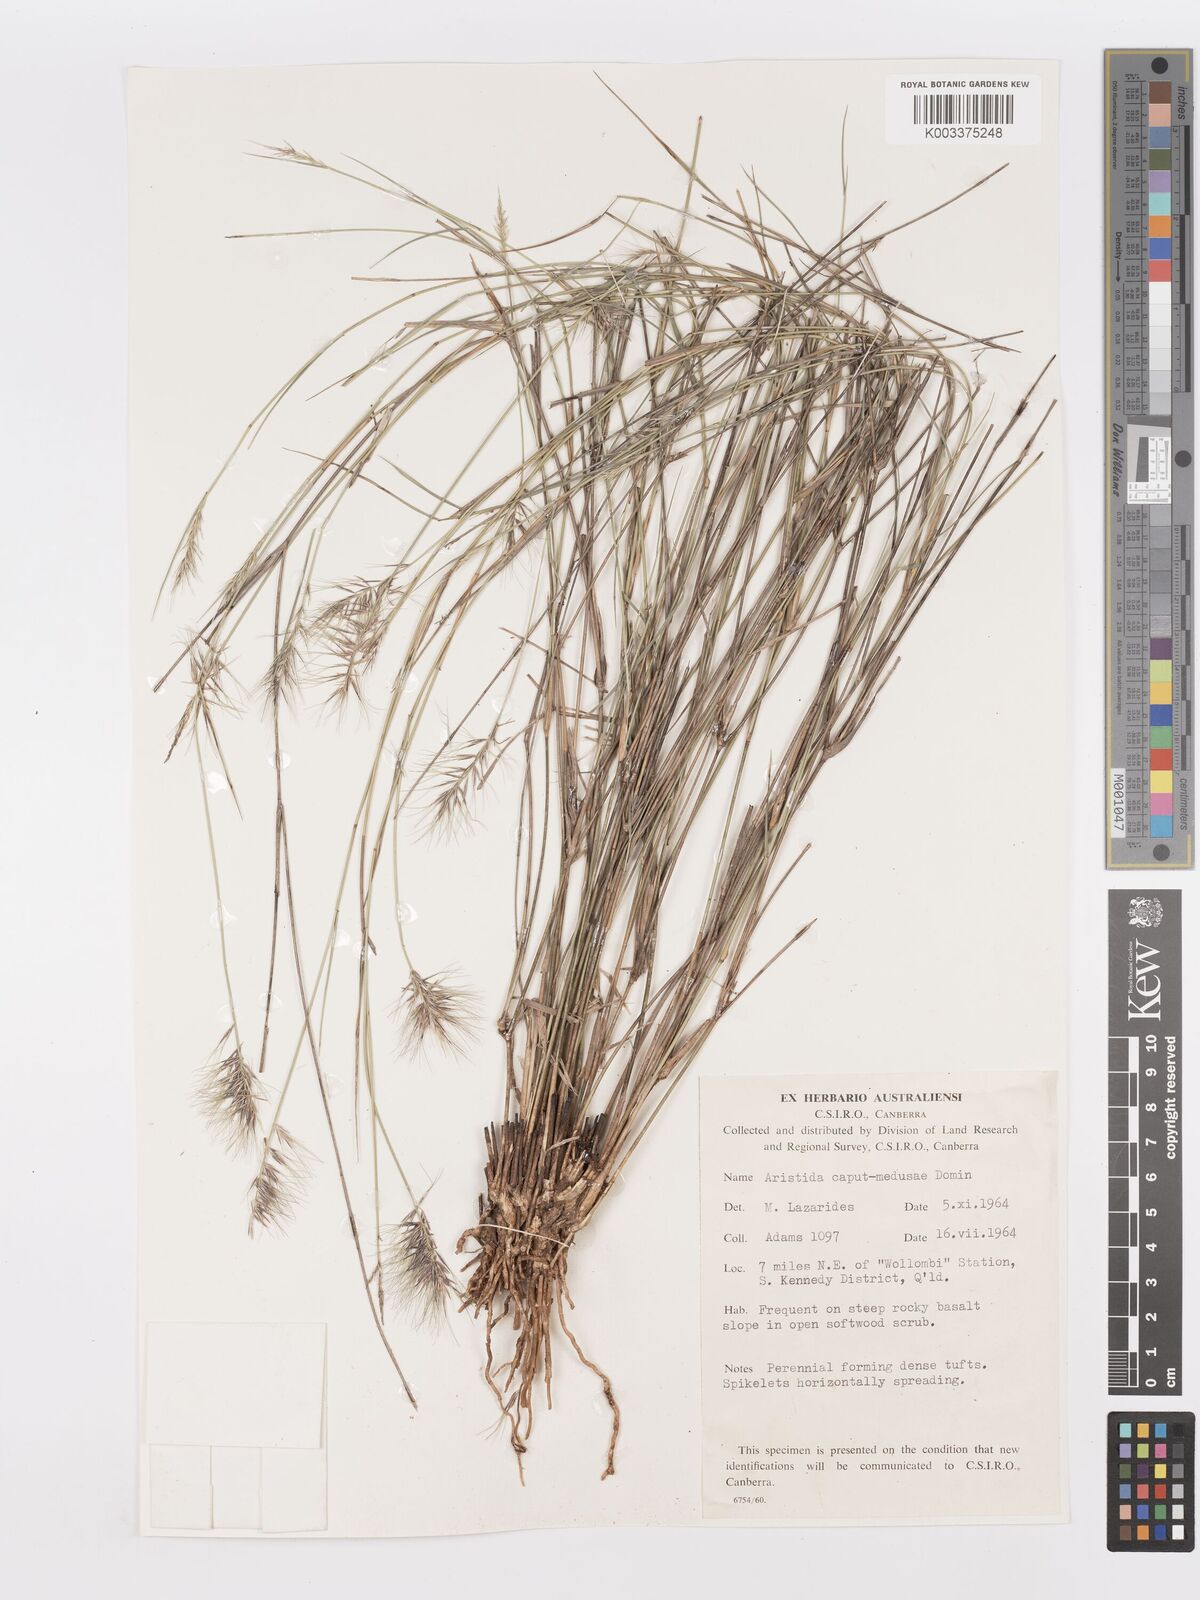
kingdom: Plantae
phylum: Tracheophyta
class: Liliopsida
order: Poales
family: Poaceae
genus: Aristida
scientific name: Aristida caput-medusae
